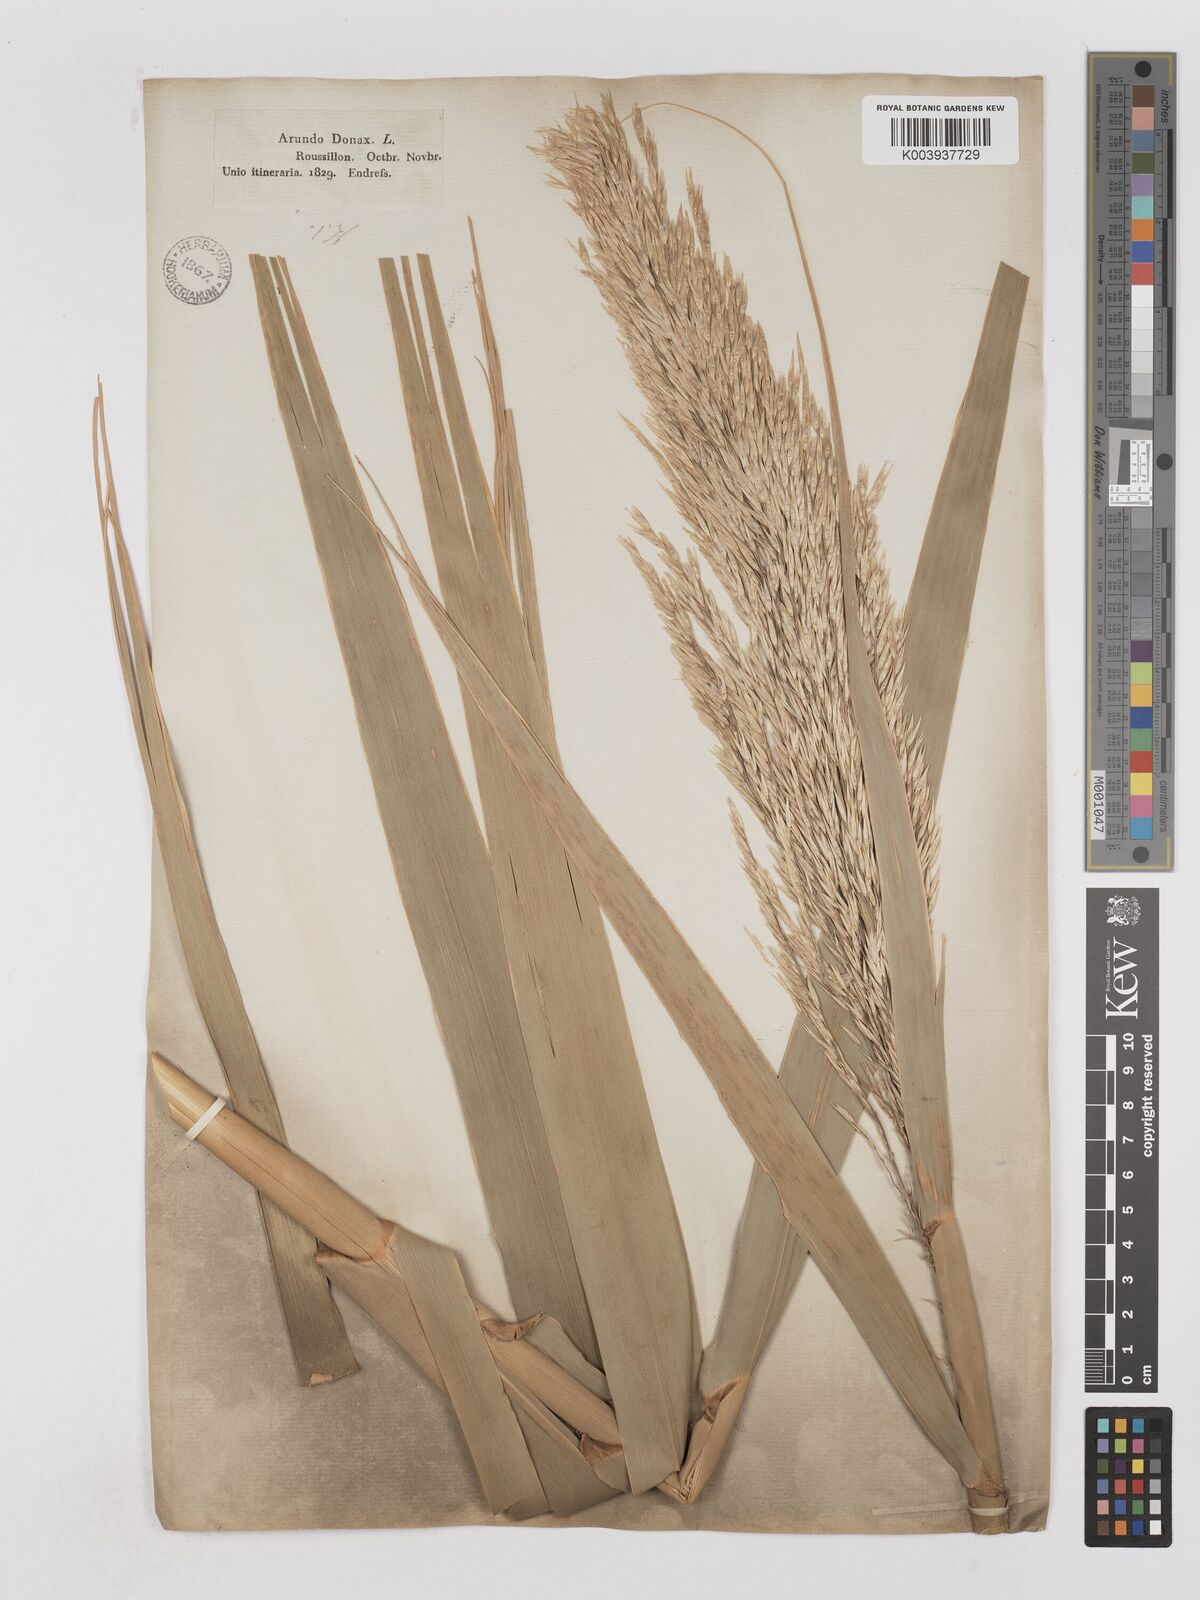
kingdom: Plantae
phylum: Tracheophyta
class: Liliopsida
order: Poales
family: Poaceae
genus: Arundo
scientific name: Arundo donax
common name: Giant reed
